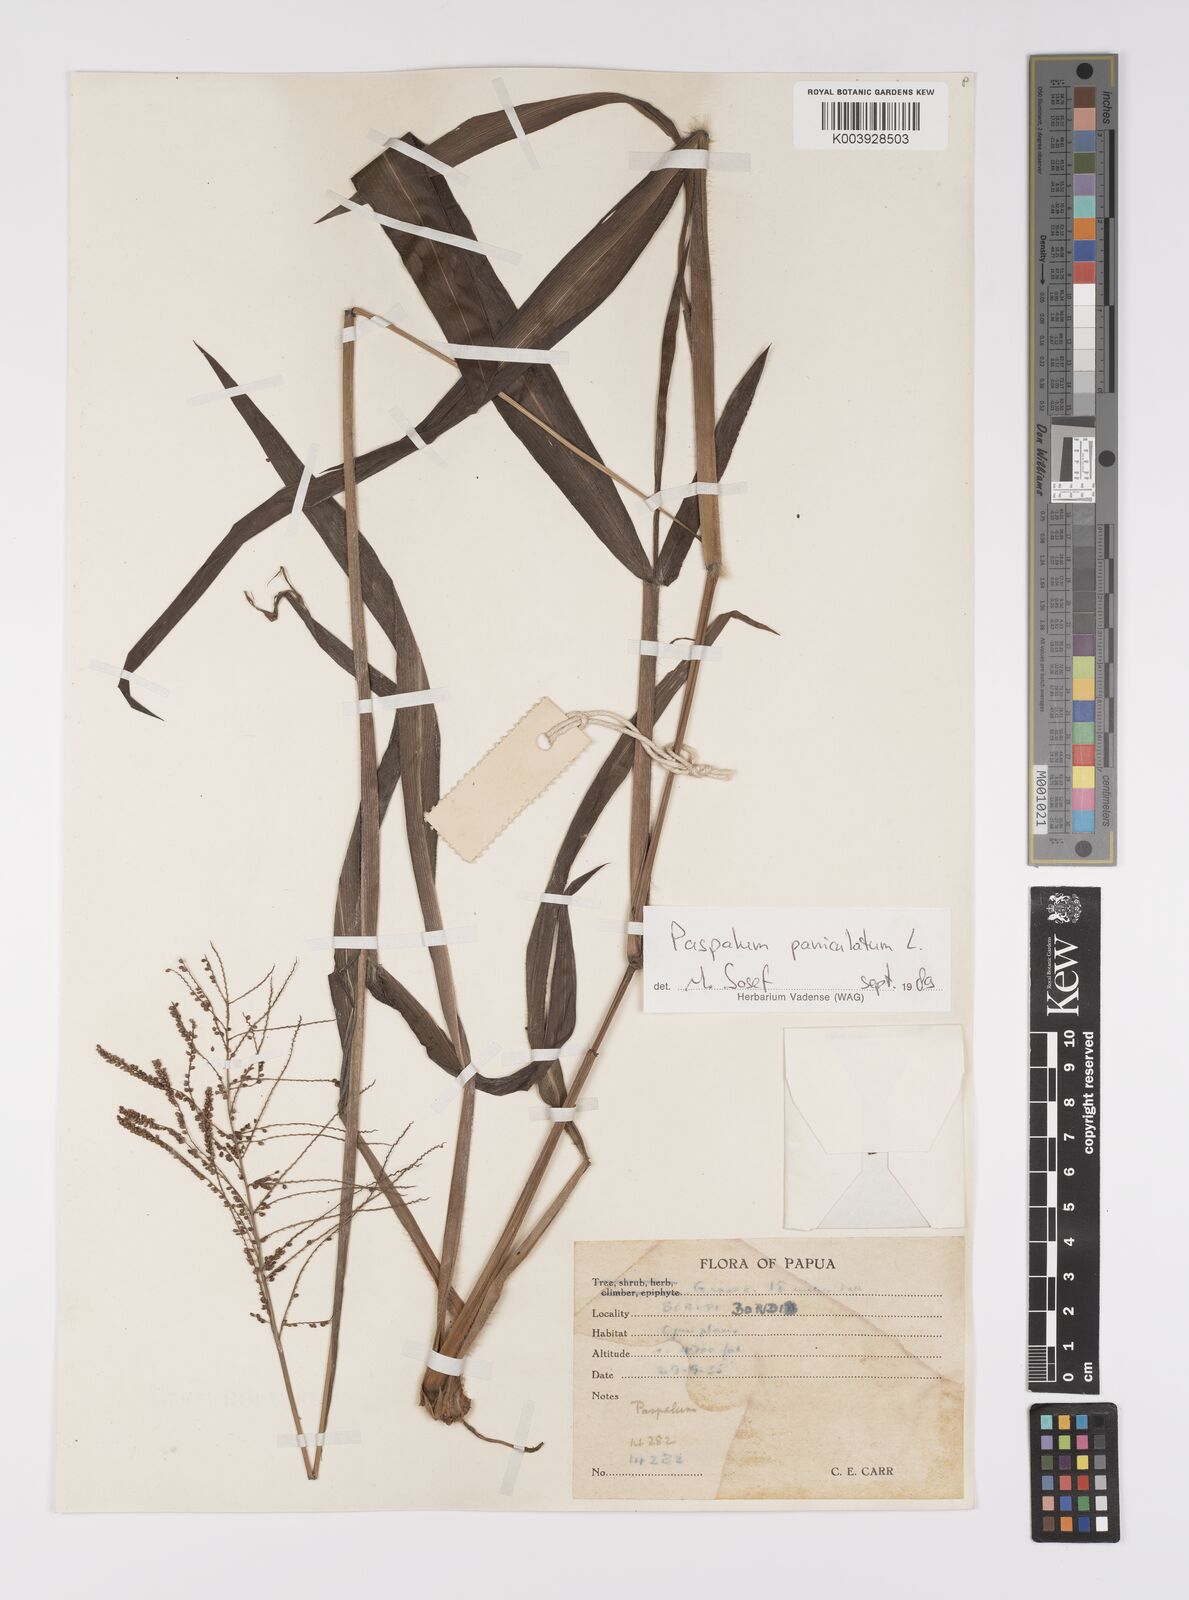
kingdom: Plantae
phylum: Tracheophyta
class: Liliopsida
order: Poales
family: Poaceae
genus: Paspalum
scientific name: Paspalum paniculatum
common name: Arrocillo
